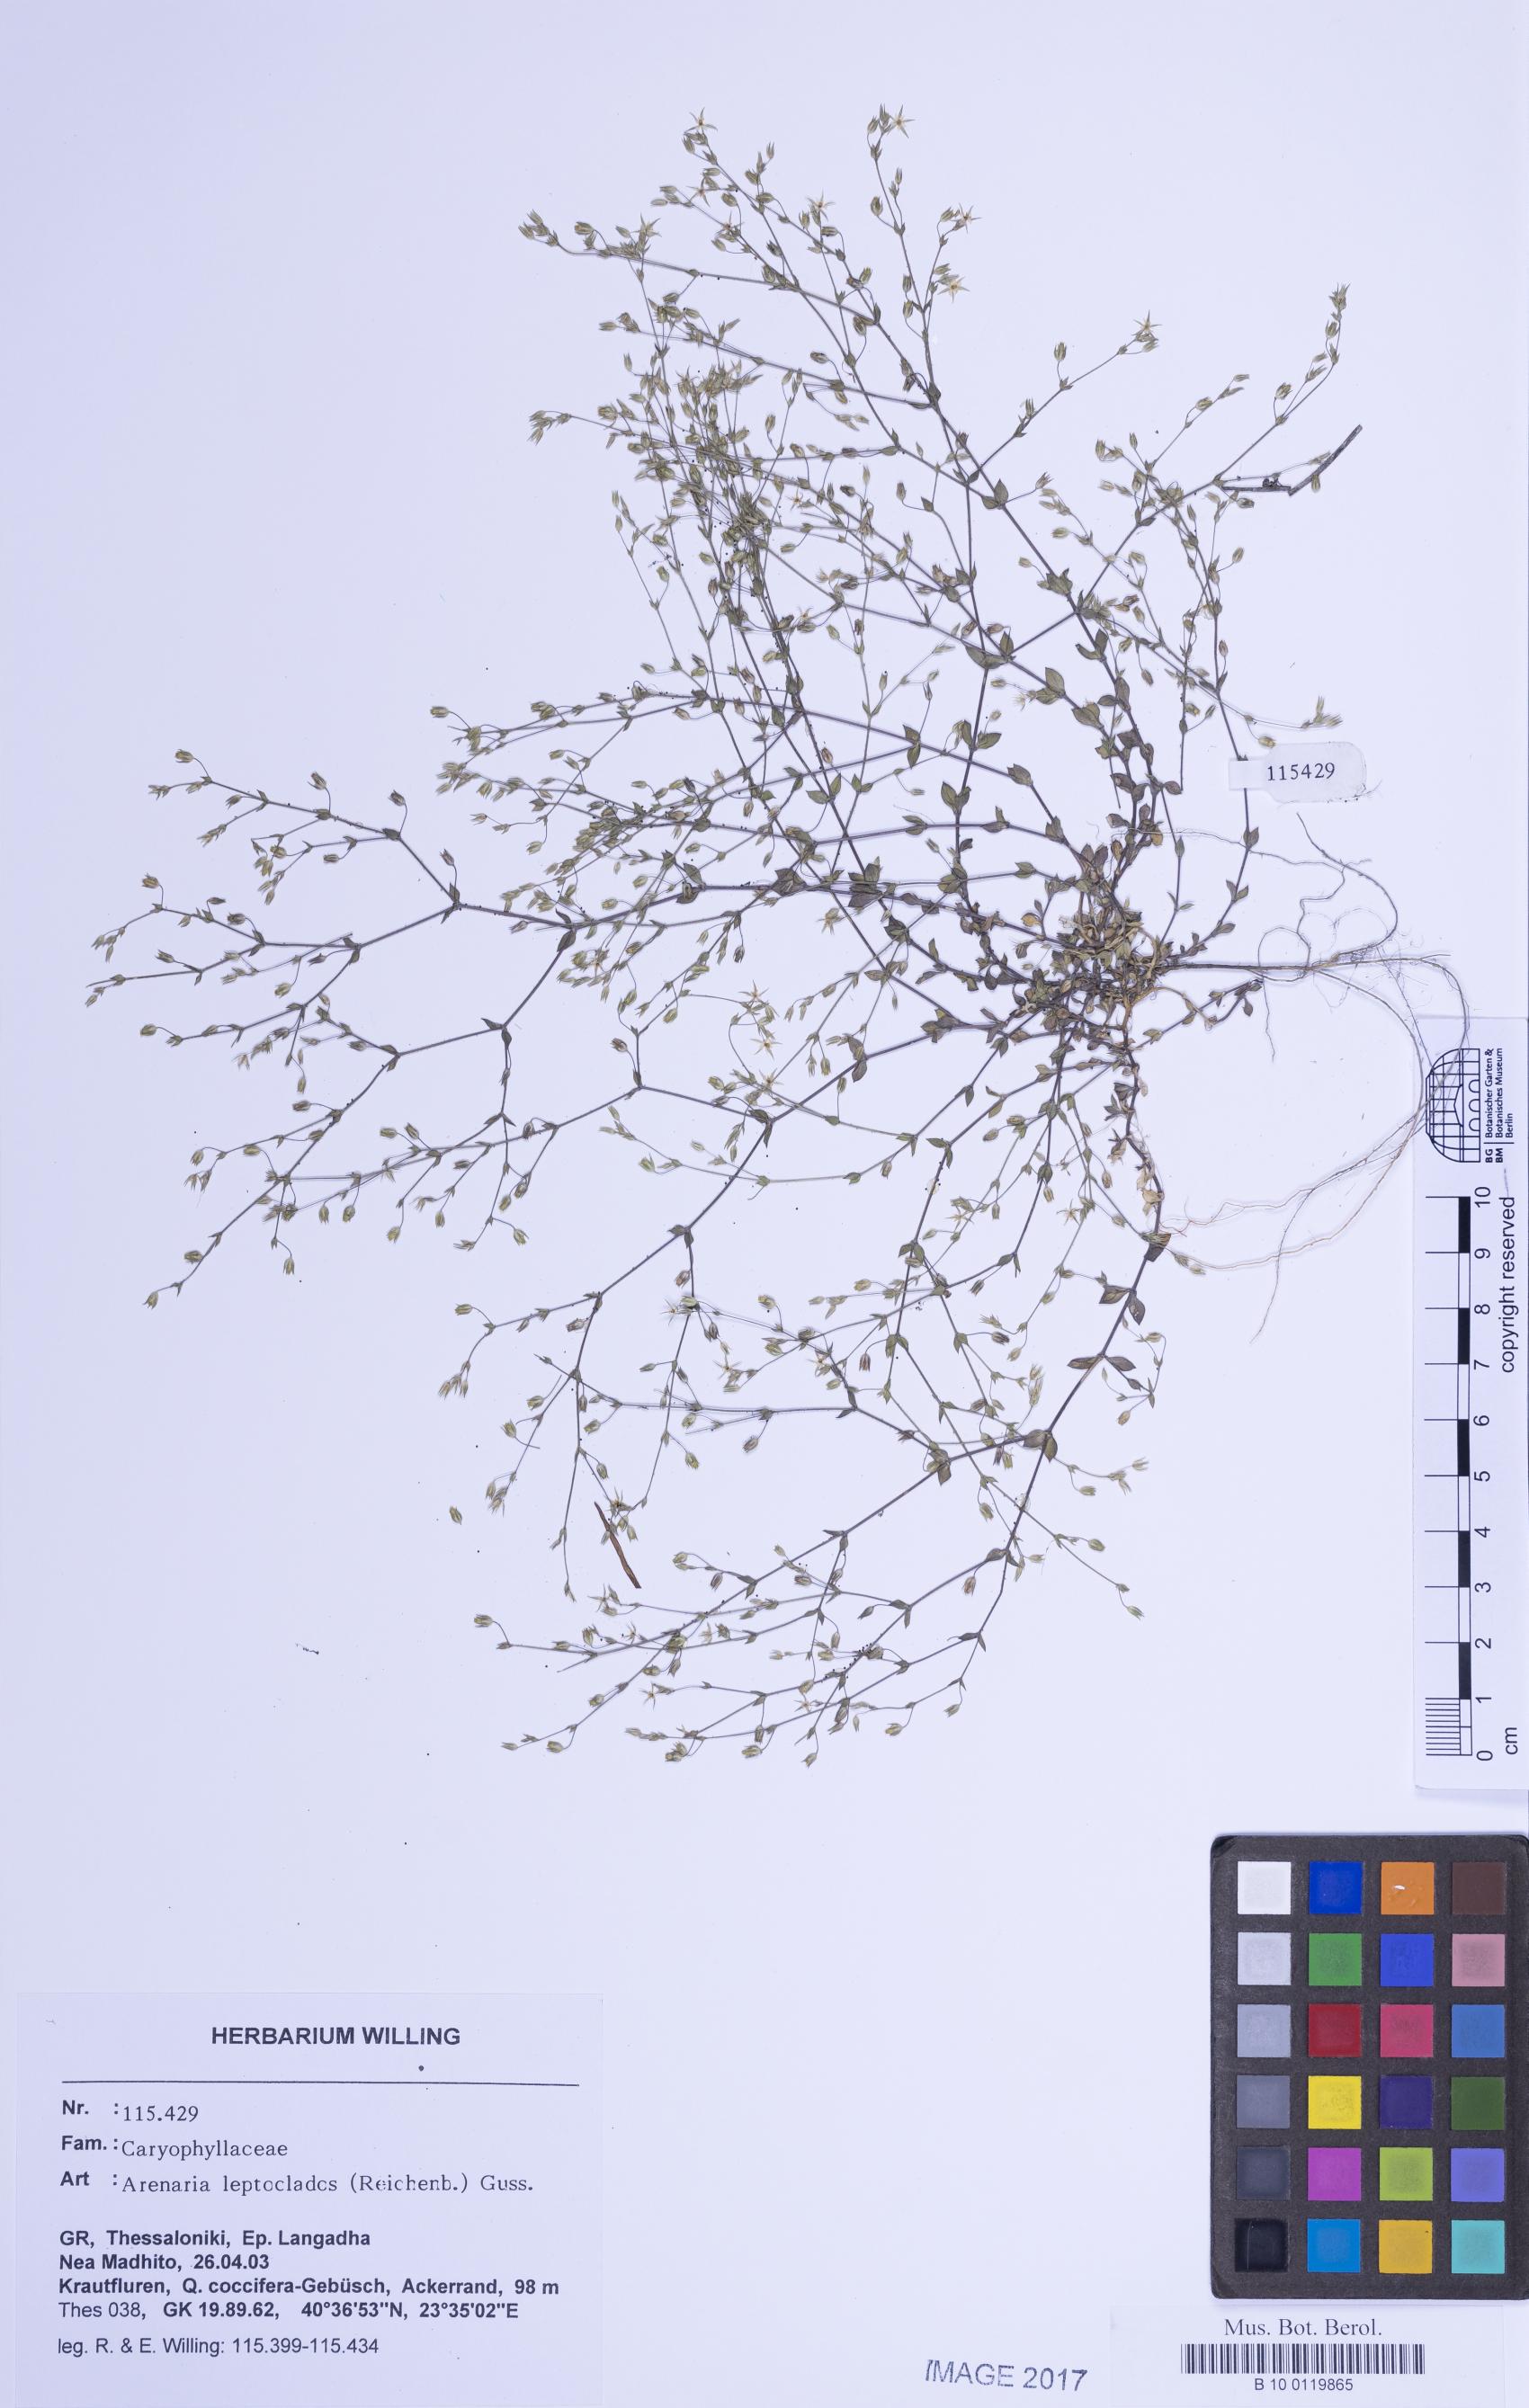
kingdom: Plantae
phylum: Tracheophyta
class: Magnoliopsida
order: Caryophyllales
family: Caryophyllaceae
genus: Arenaria
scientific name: Arenaria leptoclados
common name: Thyme-leaved sandwort
